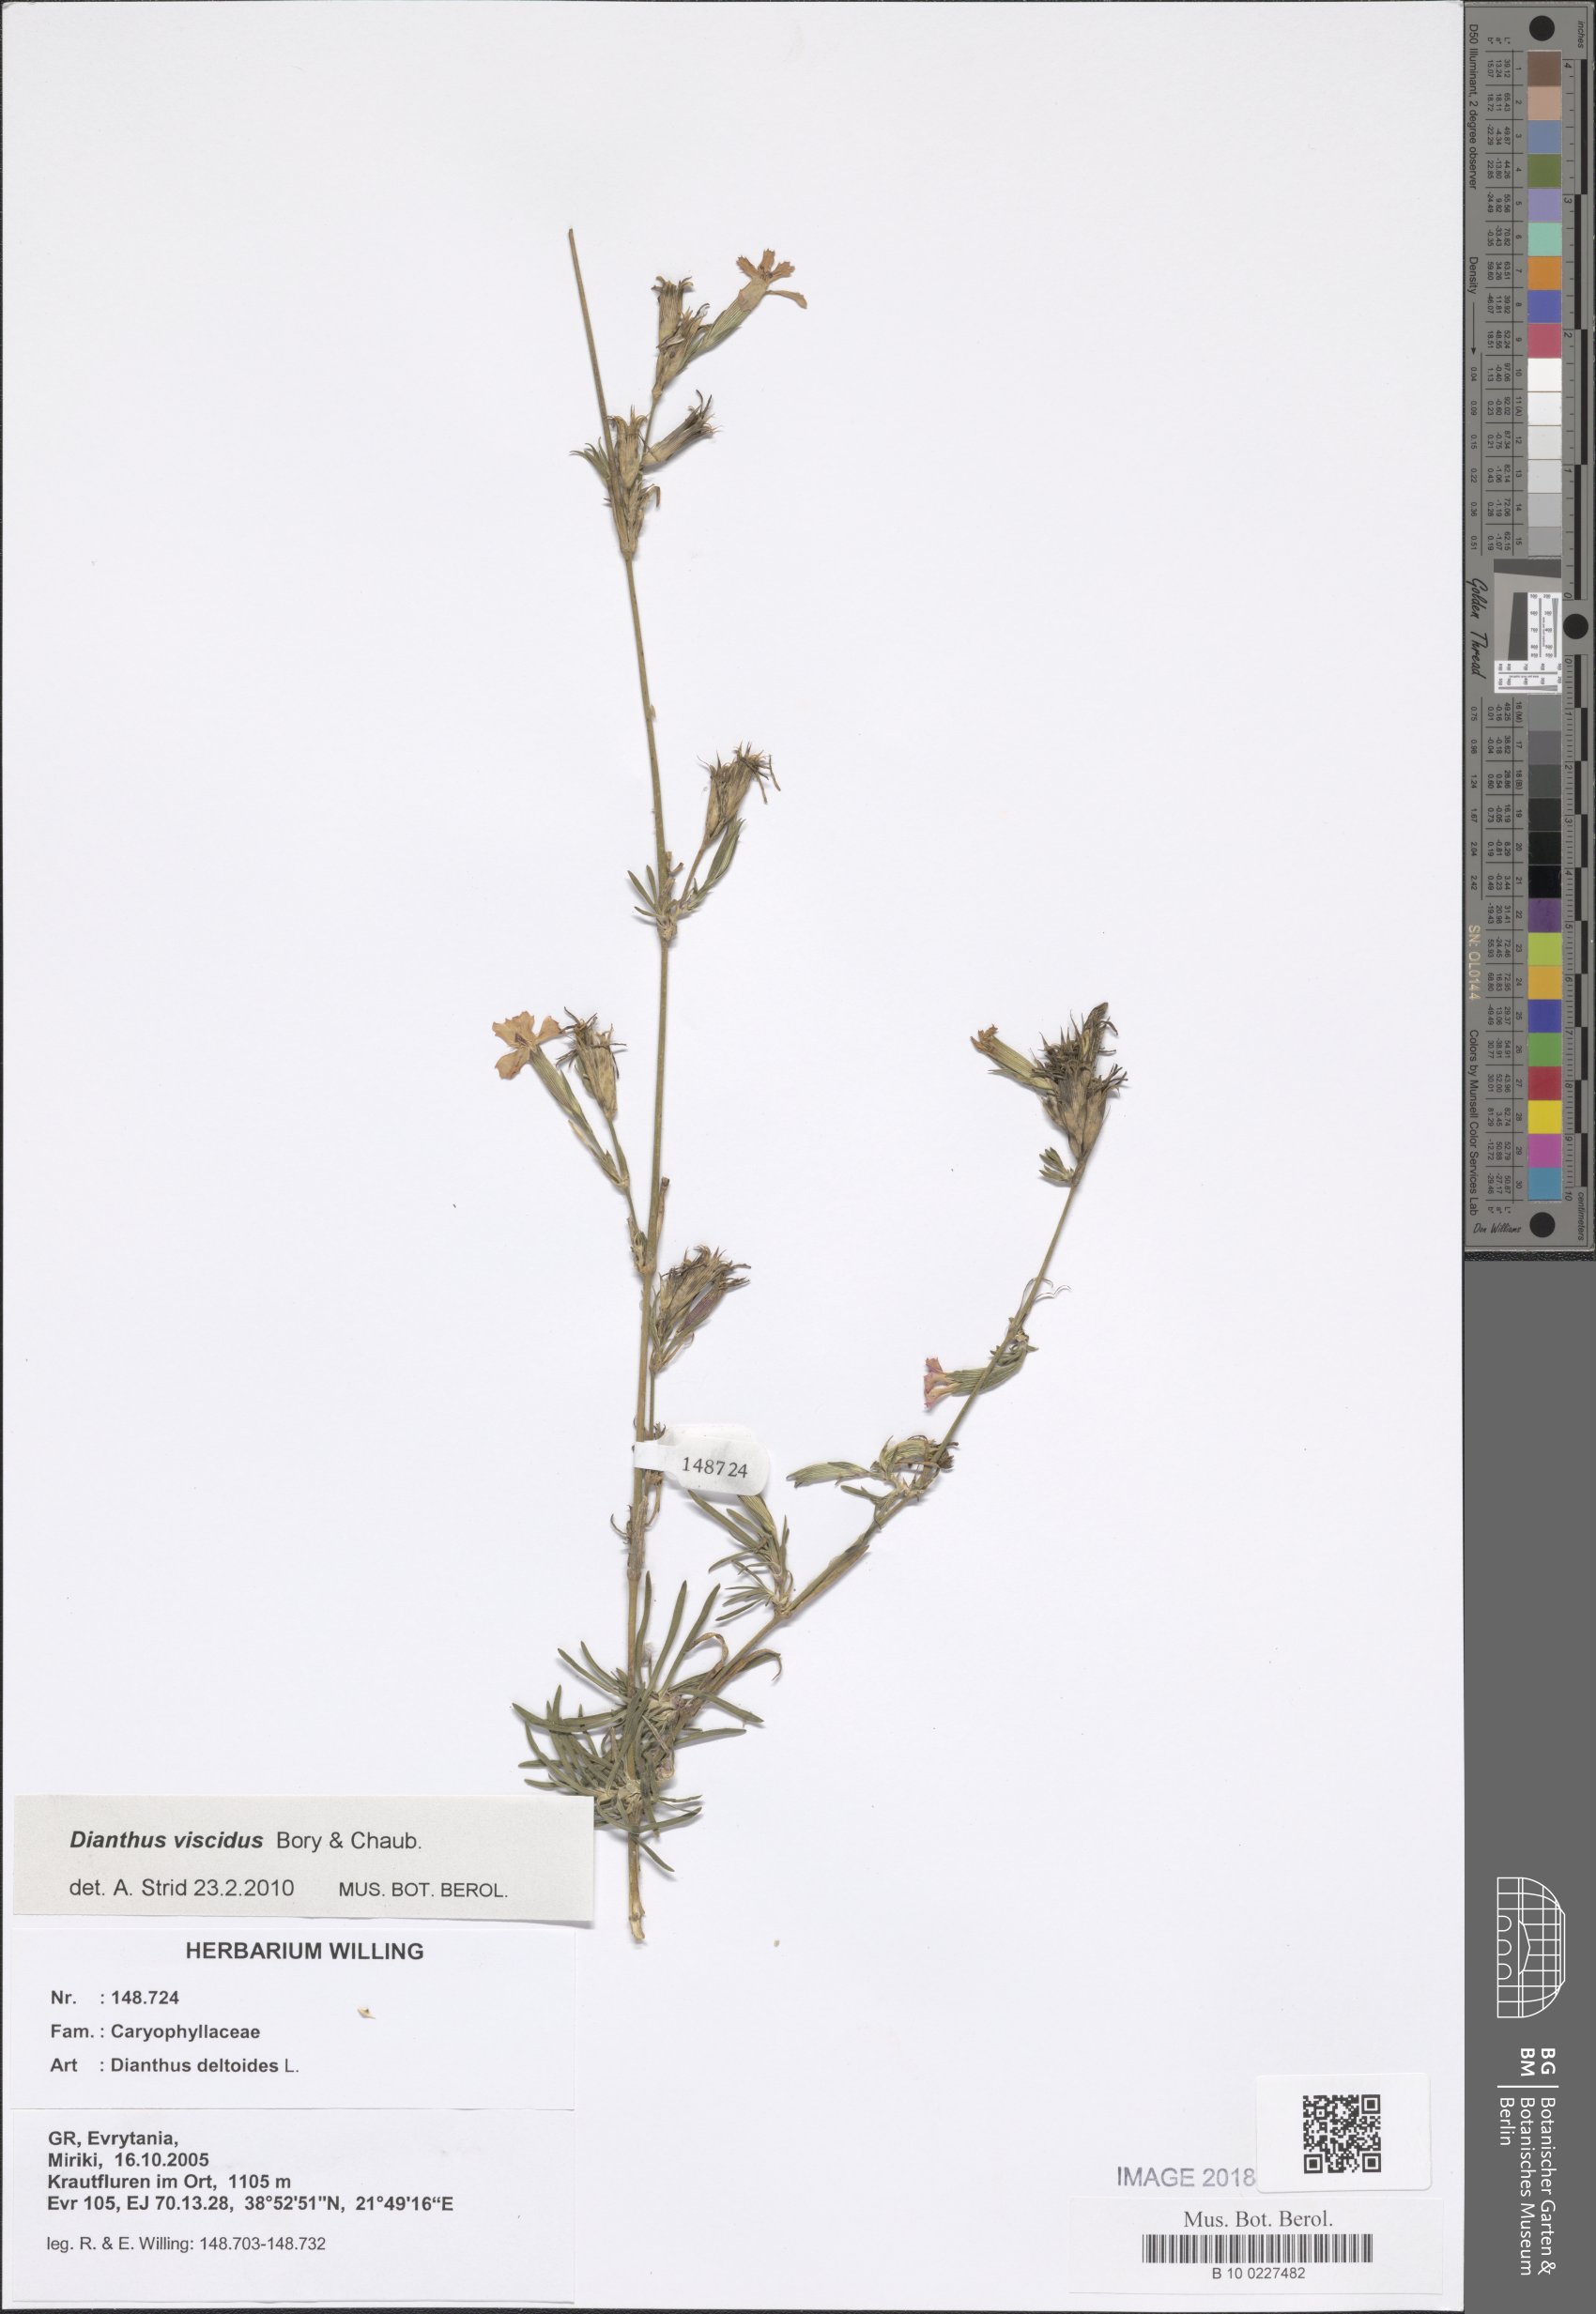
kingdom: Plantae
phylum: Tracheophyta
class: Magnoliopsida
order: Caryophyllales
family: Caryophyllaceae
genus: Dianthus
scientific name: Dianthus deltoides
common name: Maiden pink
